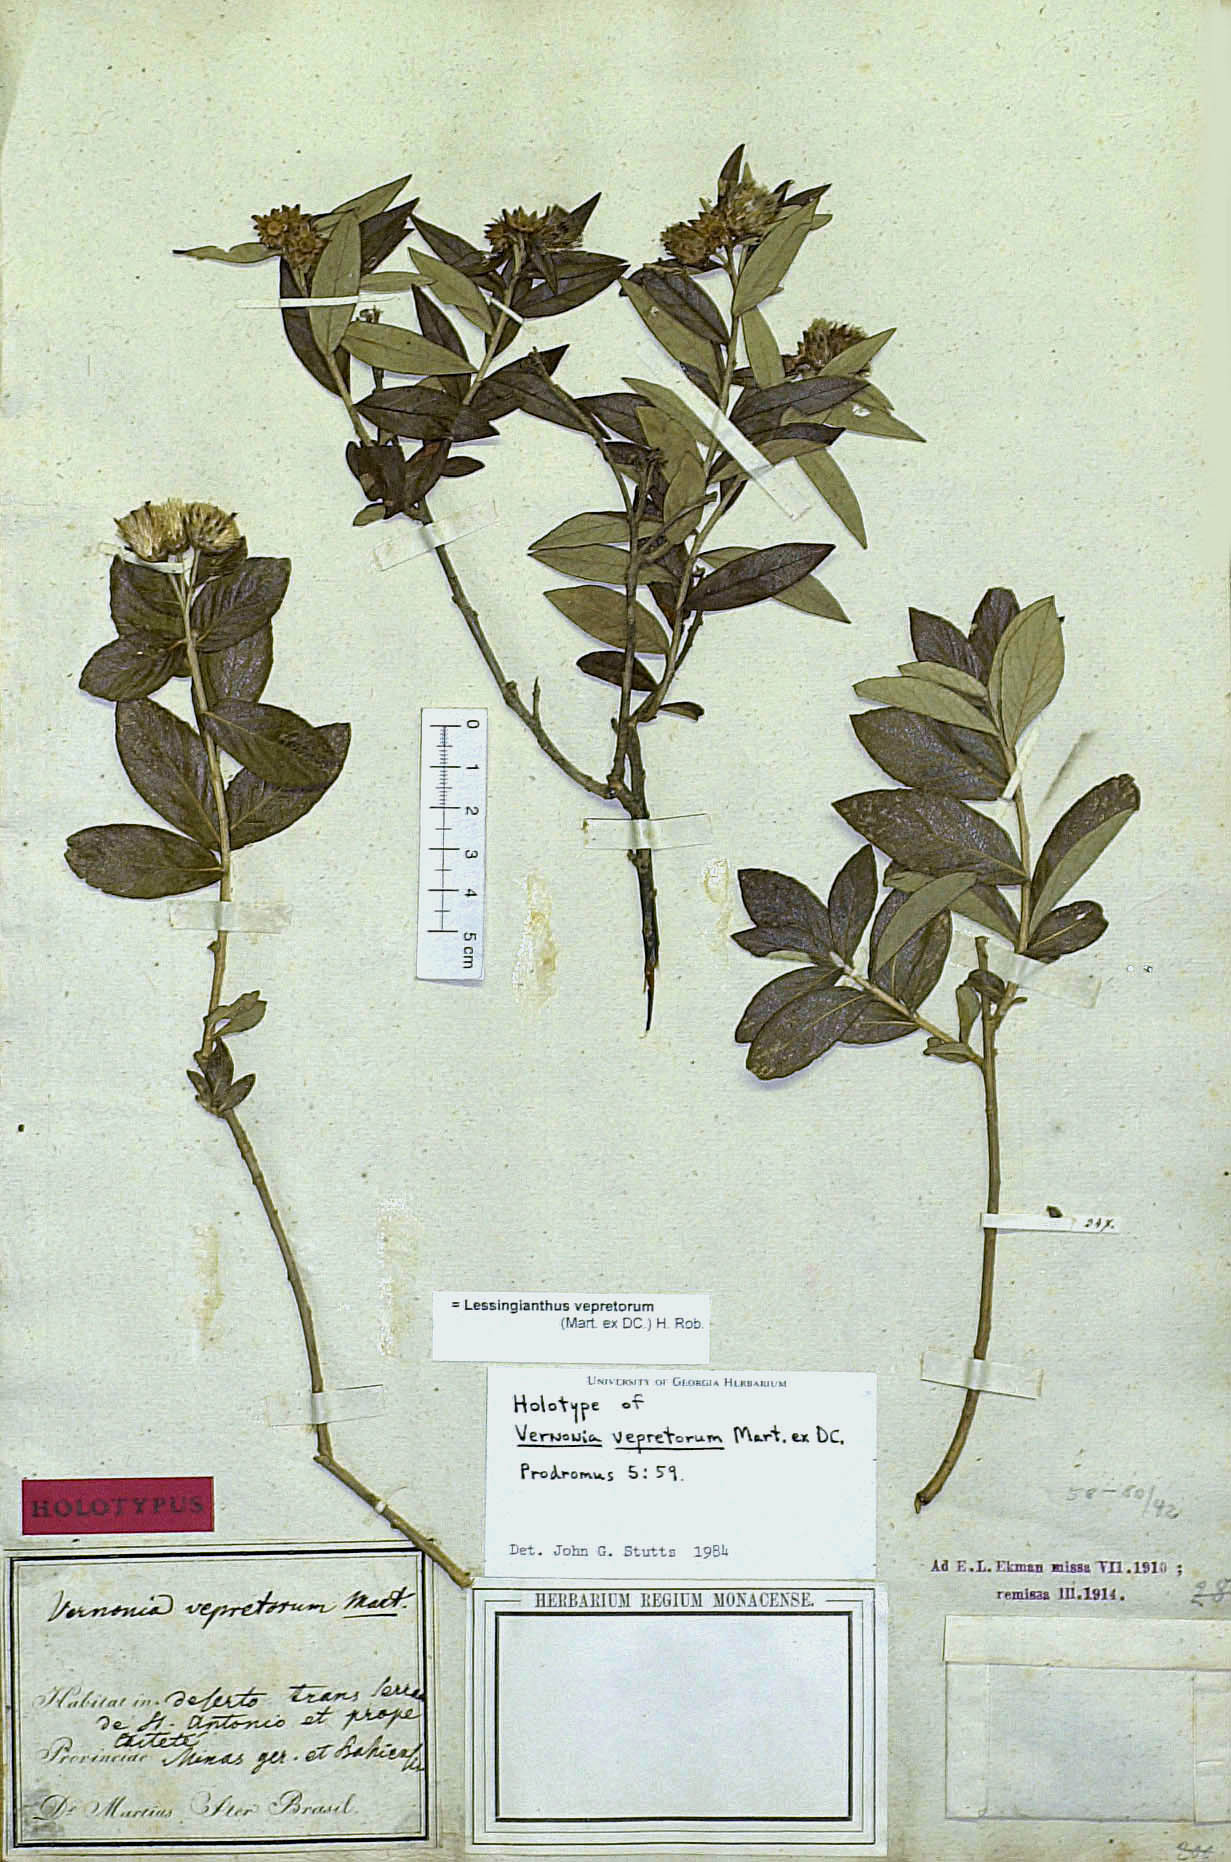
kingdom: Plantae
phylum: Tracheophyta
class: Magnoliopsida
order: Asterales
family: Asteraceae
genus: Lessingianthus
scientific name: Lessingianthus vepretorum
